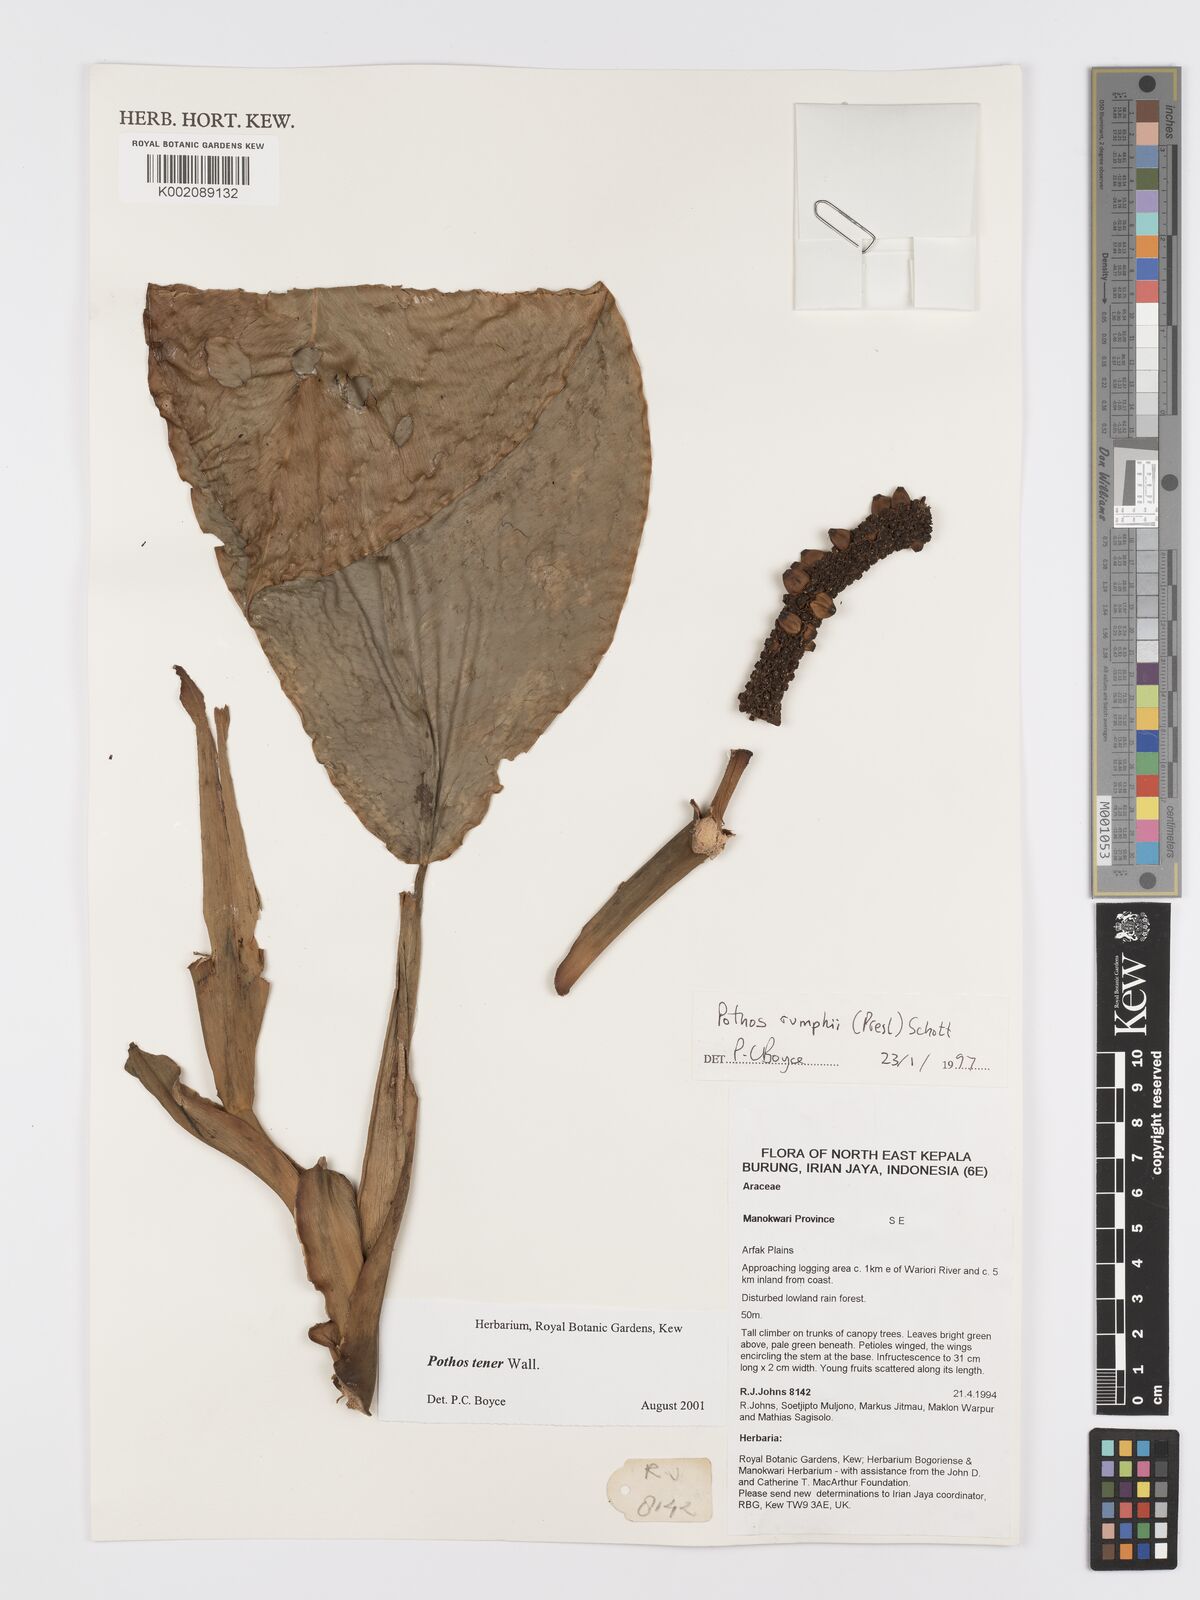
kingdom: Plantae
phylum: Tracheophyta
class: Liliopsida
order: Alismatales
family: Araceae
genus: Pothos
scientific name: Pothos tener
